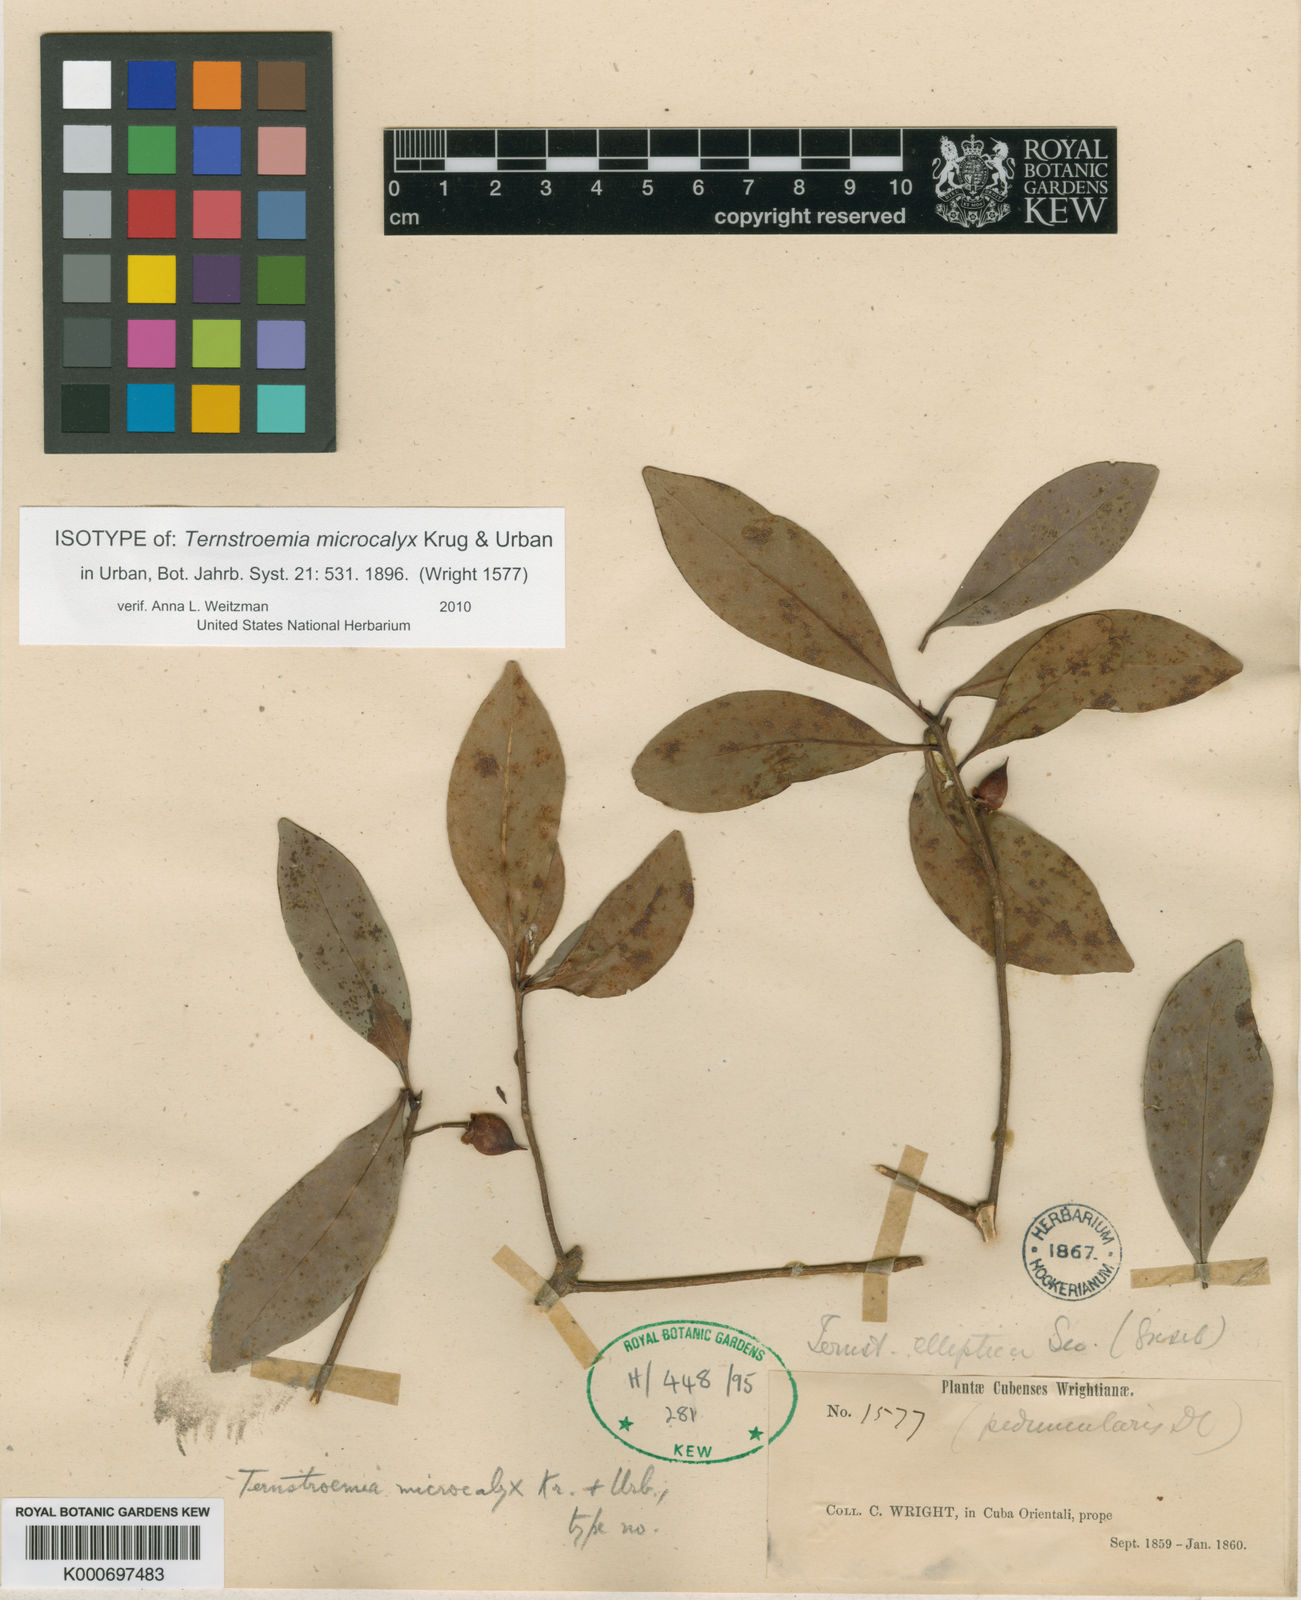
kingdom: Plantae
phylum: Tracheophyta
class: Magnoliopsida
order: Ericales
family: Pentaphylacaceae
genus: Ternstroemia
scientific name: Ternstroemia microcalyx
